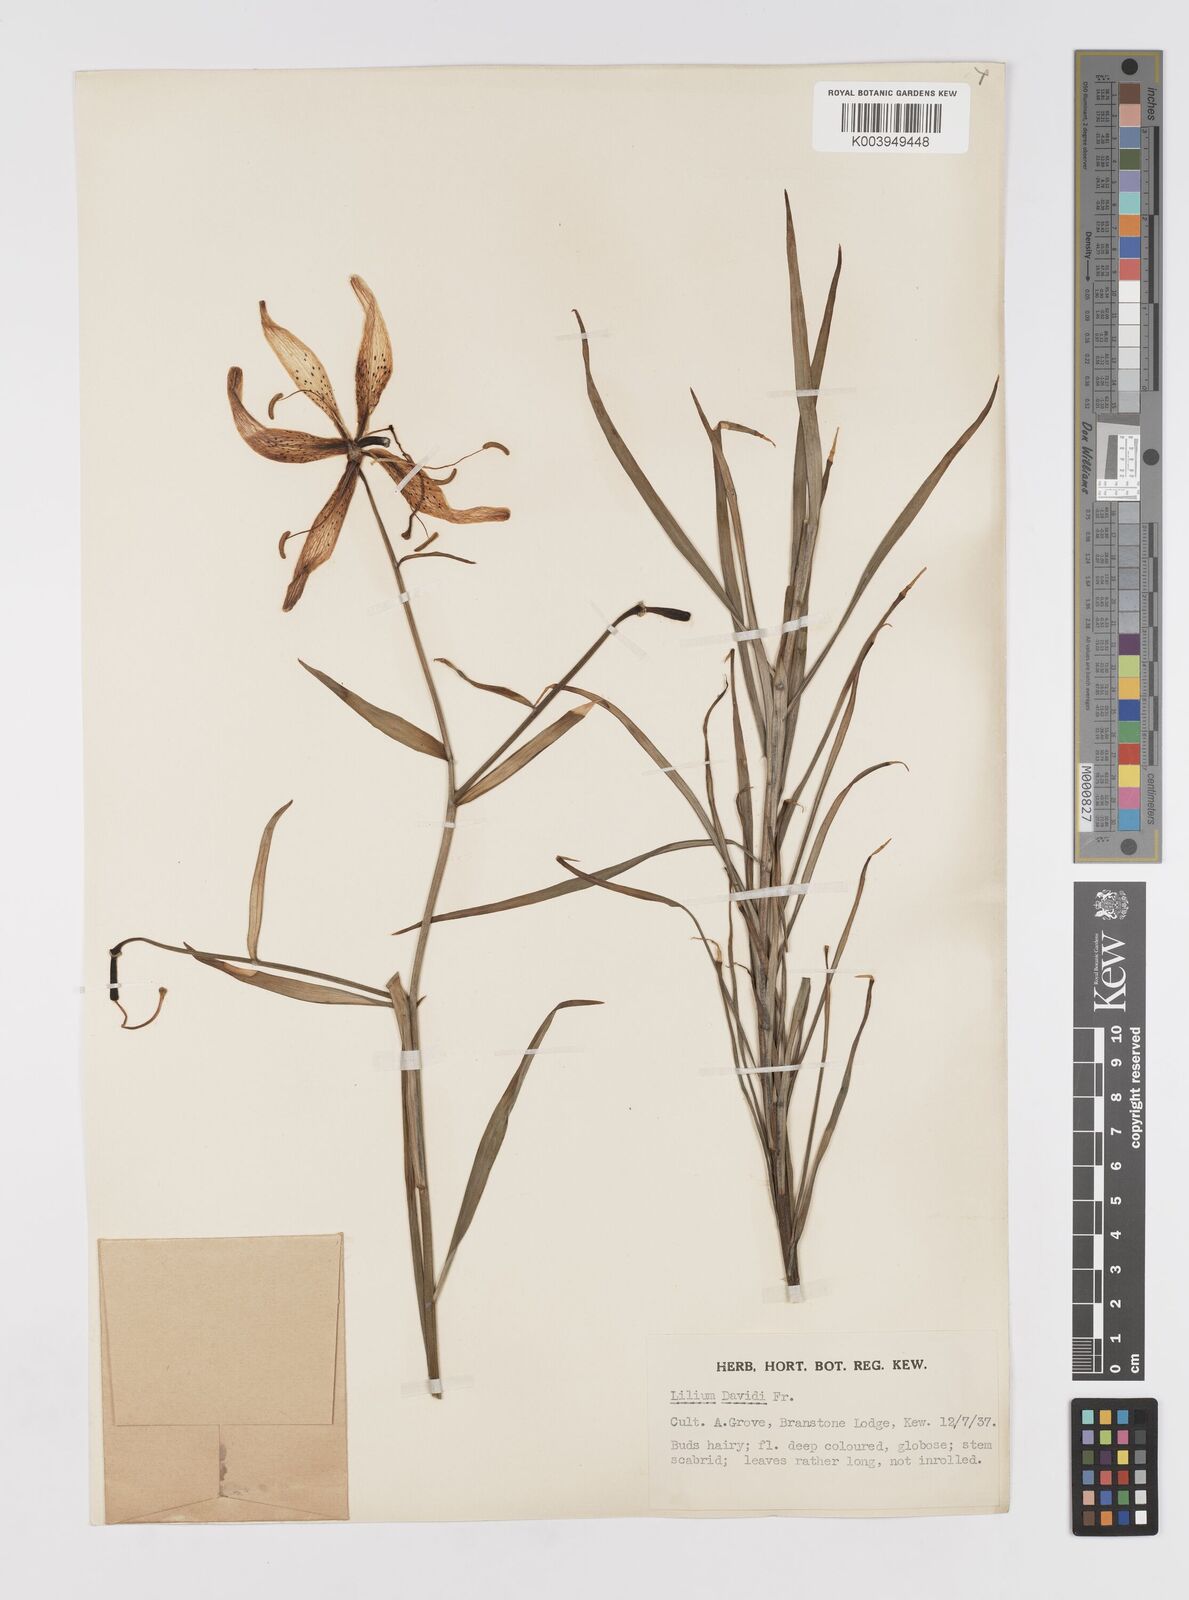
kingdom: Plantae
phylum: Tracheophyta
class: Liliopsida
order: Liliales
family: Liliaceae
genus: Lilium
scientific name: Lilium davidii
